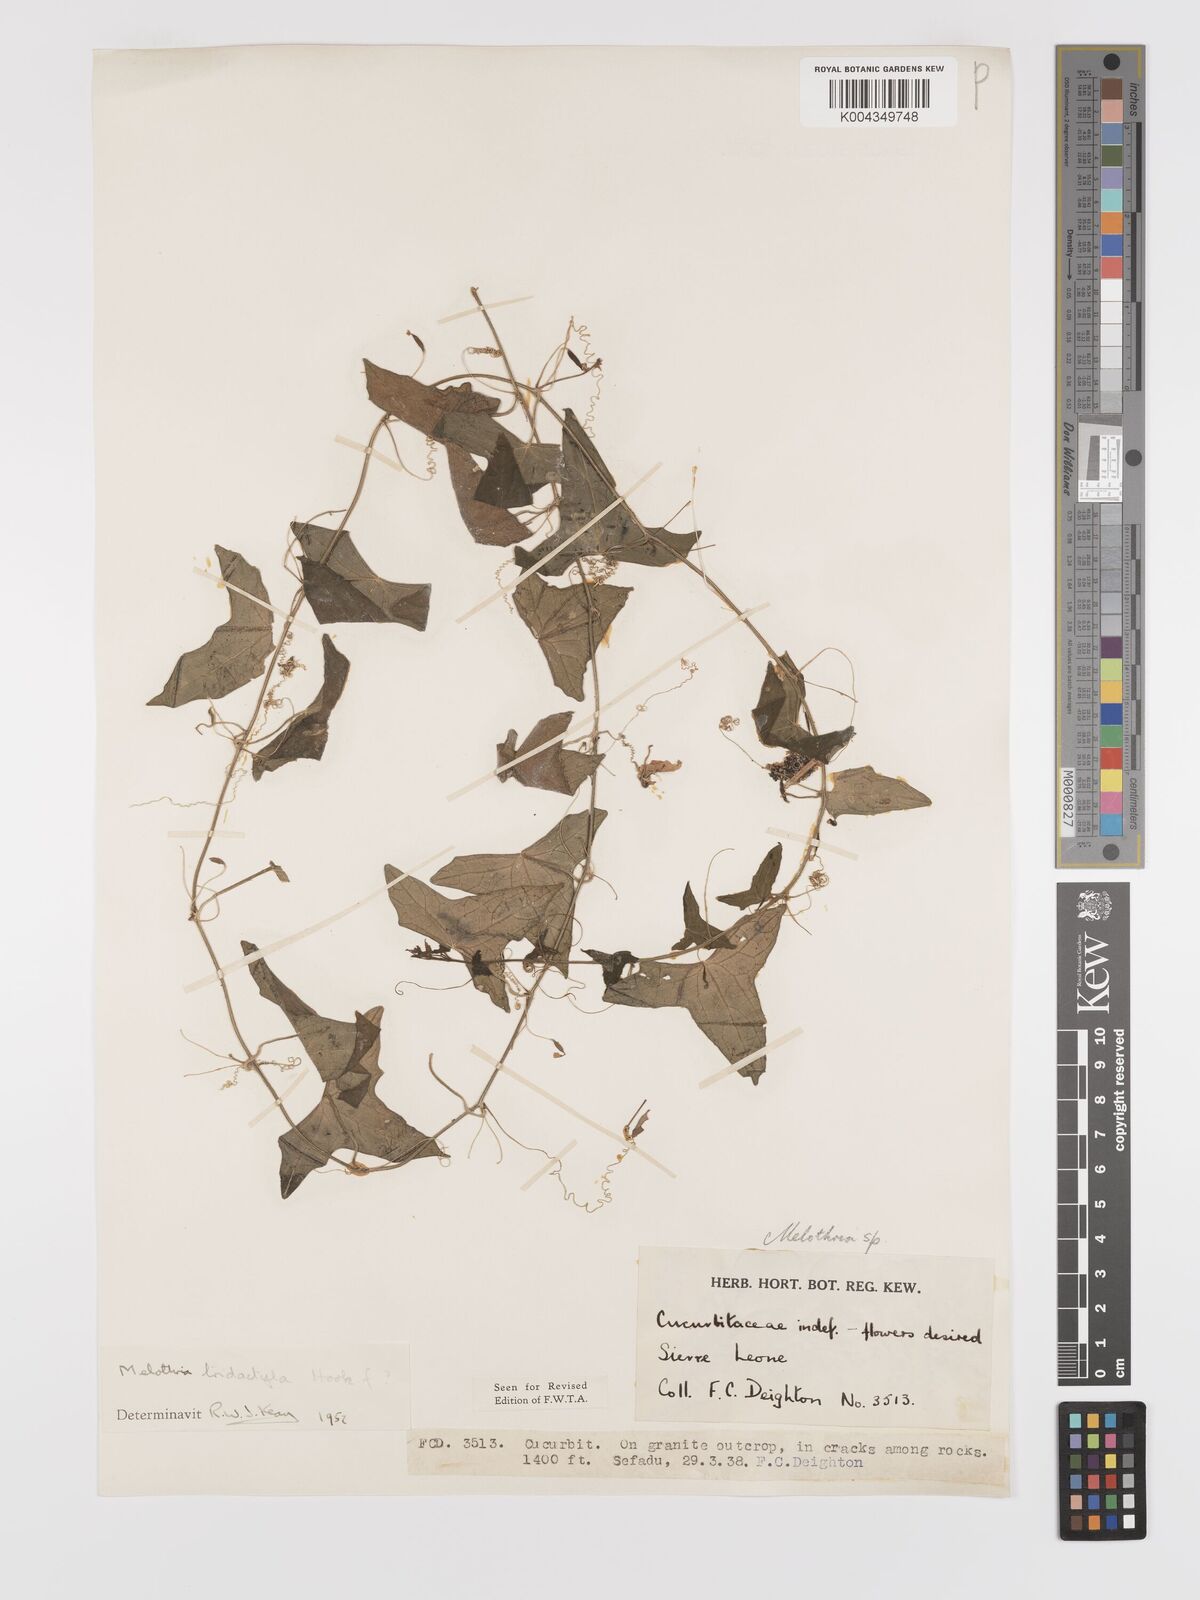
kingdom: Plantae
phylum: Tracheophyta
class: Magnoliopsida
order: Cucurbitales
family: Cucurbitaceae
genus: Zehneria
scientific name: Zehneria thwaitesii
